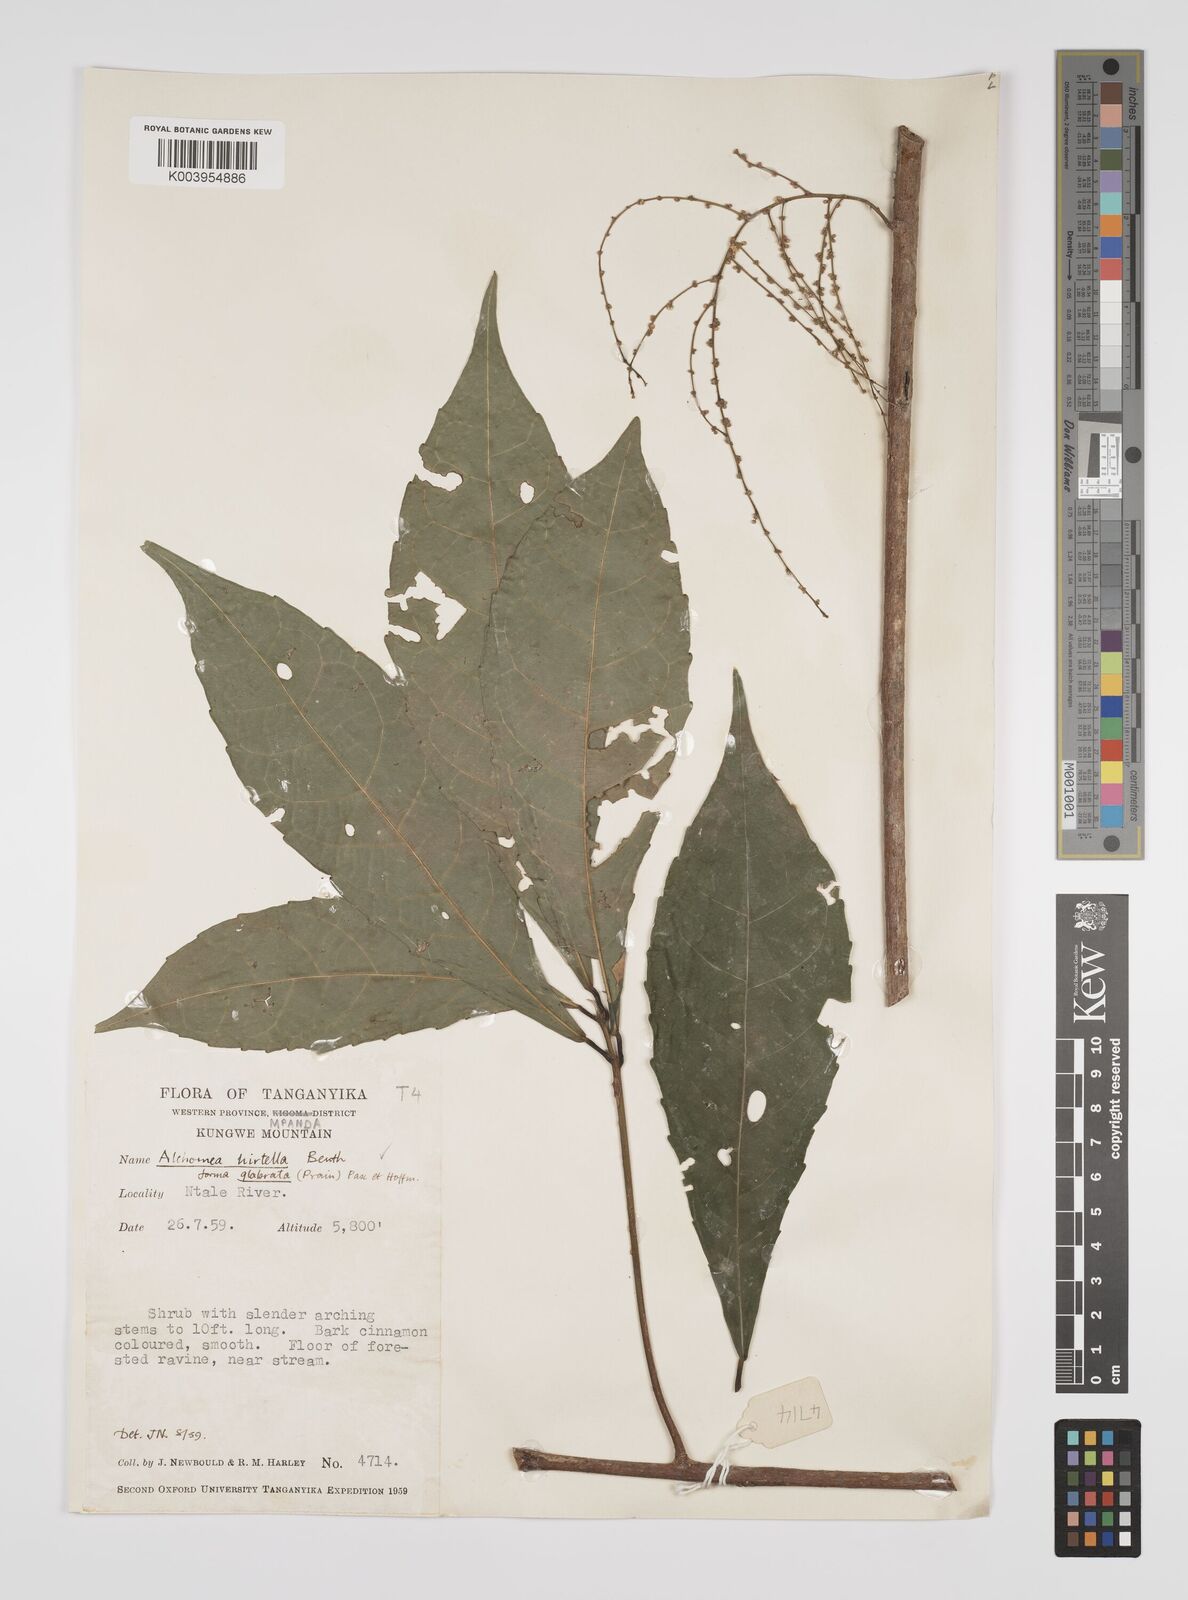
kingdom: Plantae
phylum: Tracheophyta
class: Magnoliopsida
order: Malpighiales
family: Euphorbiaceae
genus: Alchornea
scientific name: Alchornea hirtella
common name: Forest bead-string
